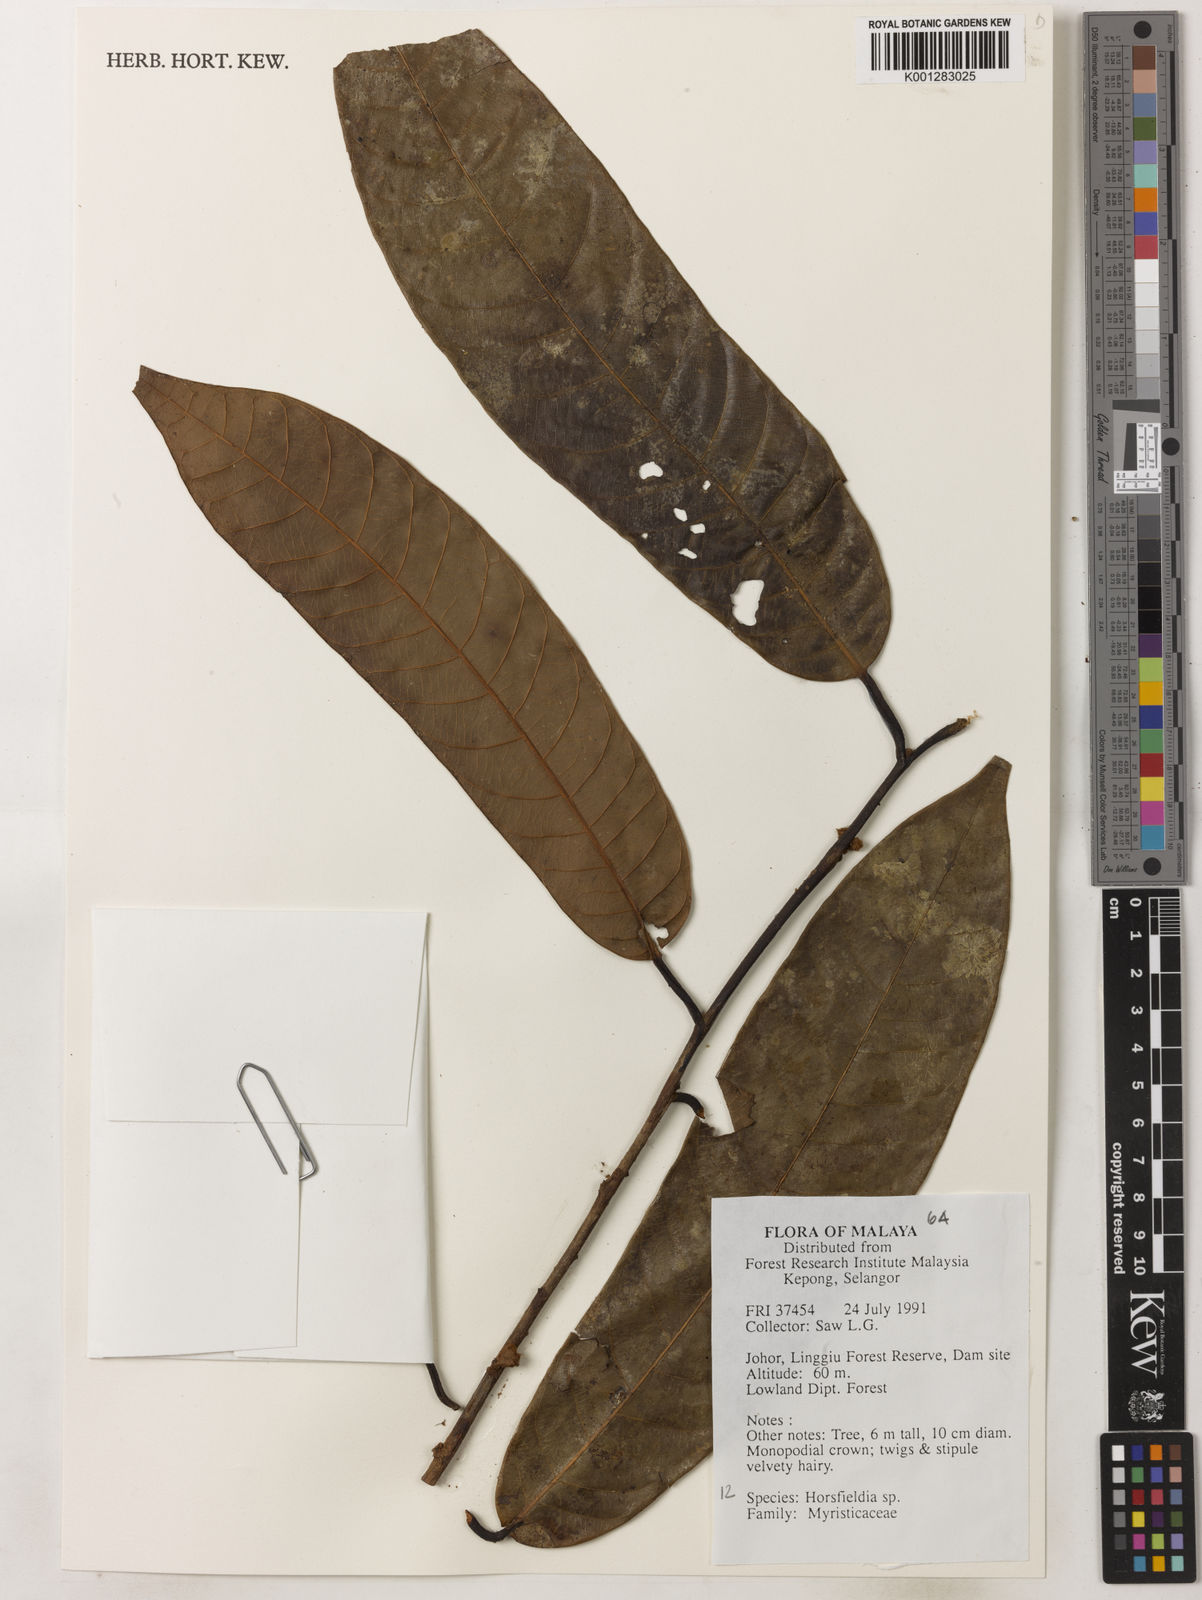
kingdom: Plantae
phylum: Tracheophyta
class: Magnoliopsida
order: Magnoliales
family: Myristicaceae
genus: Horsfieldia
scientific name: Horsfieldia
